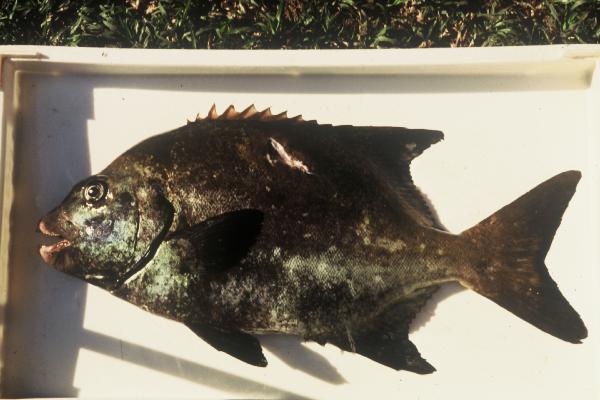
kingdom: Animalia
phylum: Chordata
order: Perciformes
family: Oplegnathidae
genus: Oplegnathus
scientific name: Oplegnathus robinsoni
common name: Natal knifejaw
